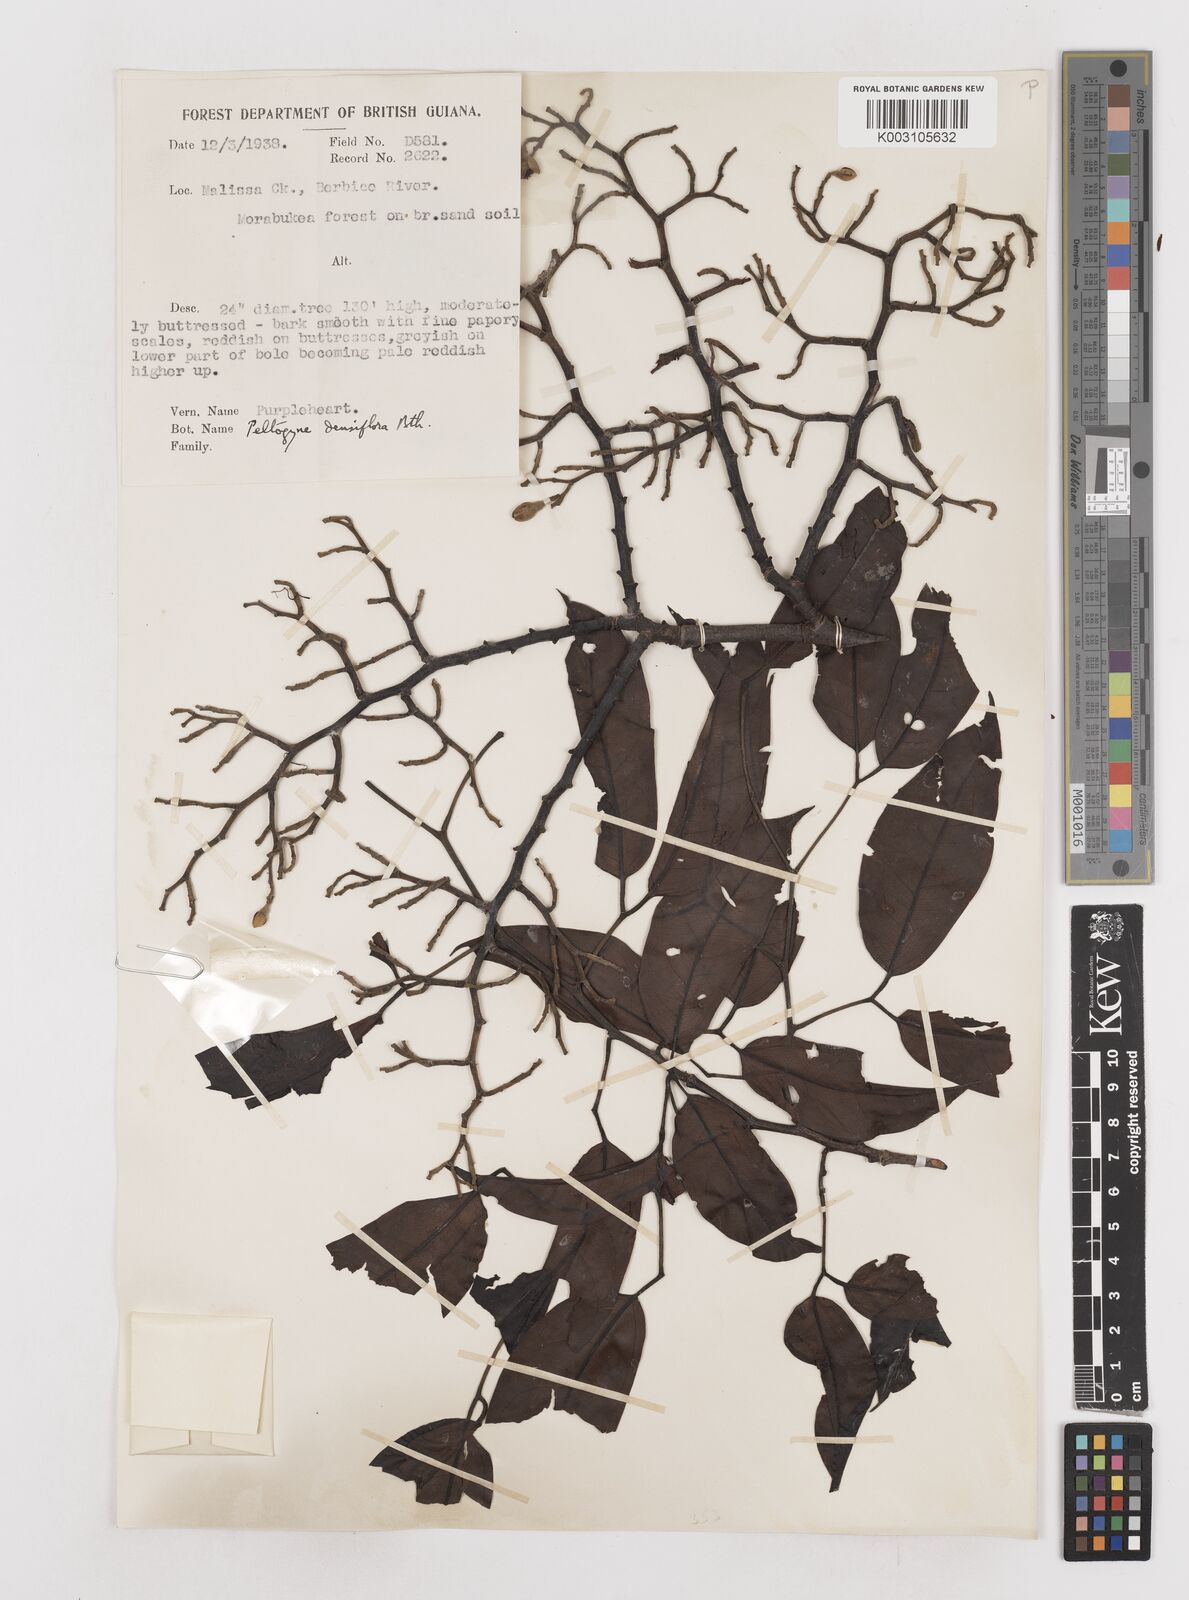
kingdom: Plantae
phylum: Tracheophyta
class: Magnoliopsida
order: Fabales
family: Fabaceae
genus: Peltogyne
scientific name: Peltogyne venosa
